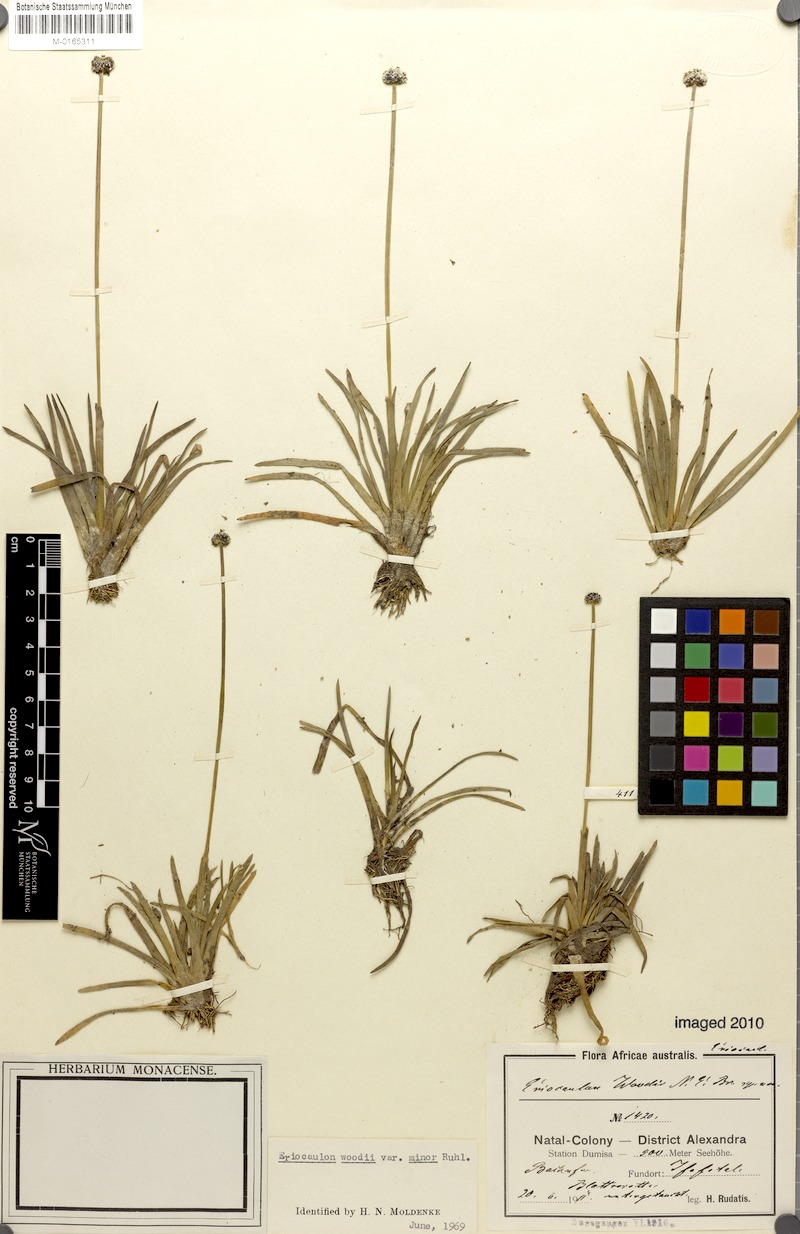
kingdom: Plantae
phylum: Tracheophyta
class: Liliopsida
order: Poales
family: Eriocaulaceae
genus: Eriocaulon
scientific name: Eriocaulon africanum
